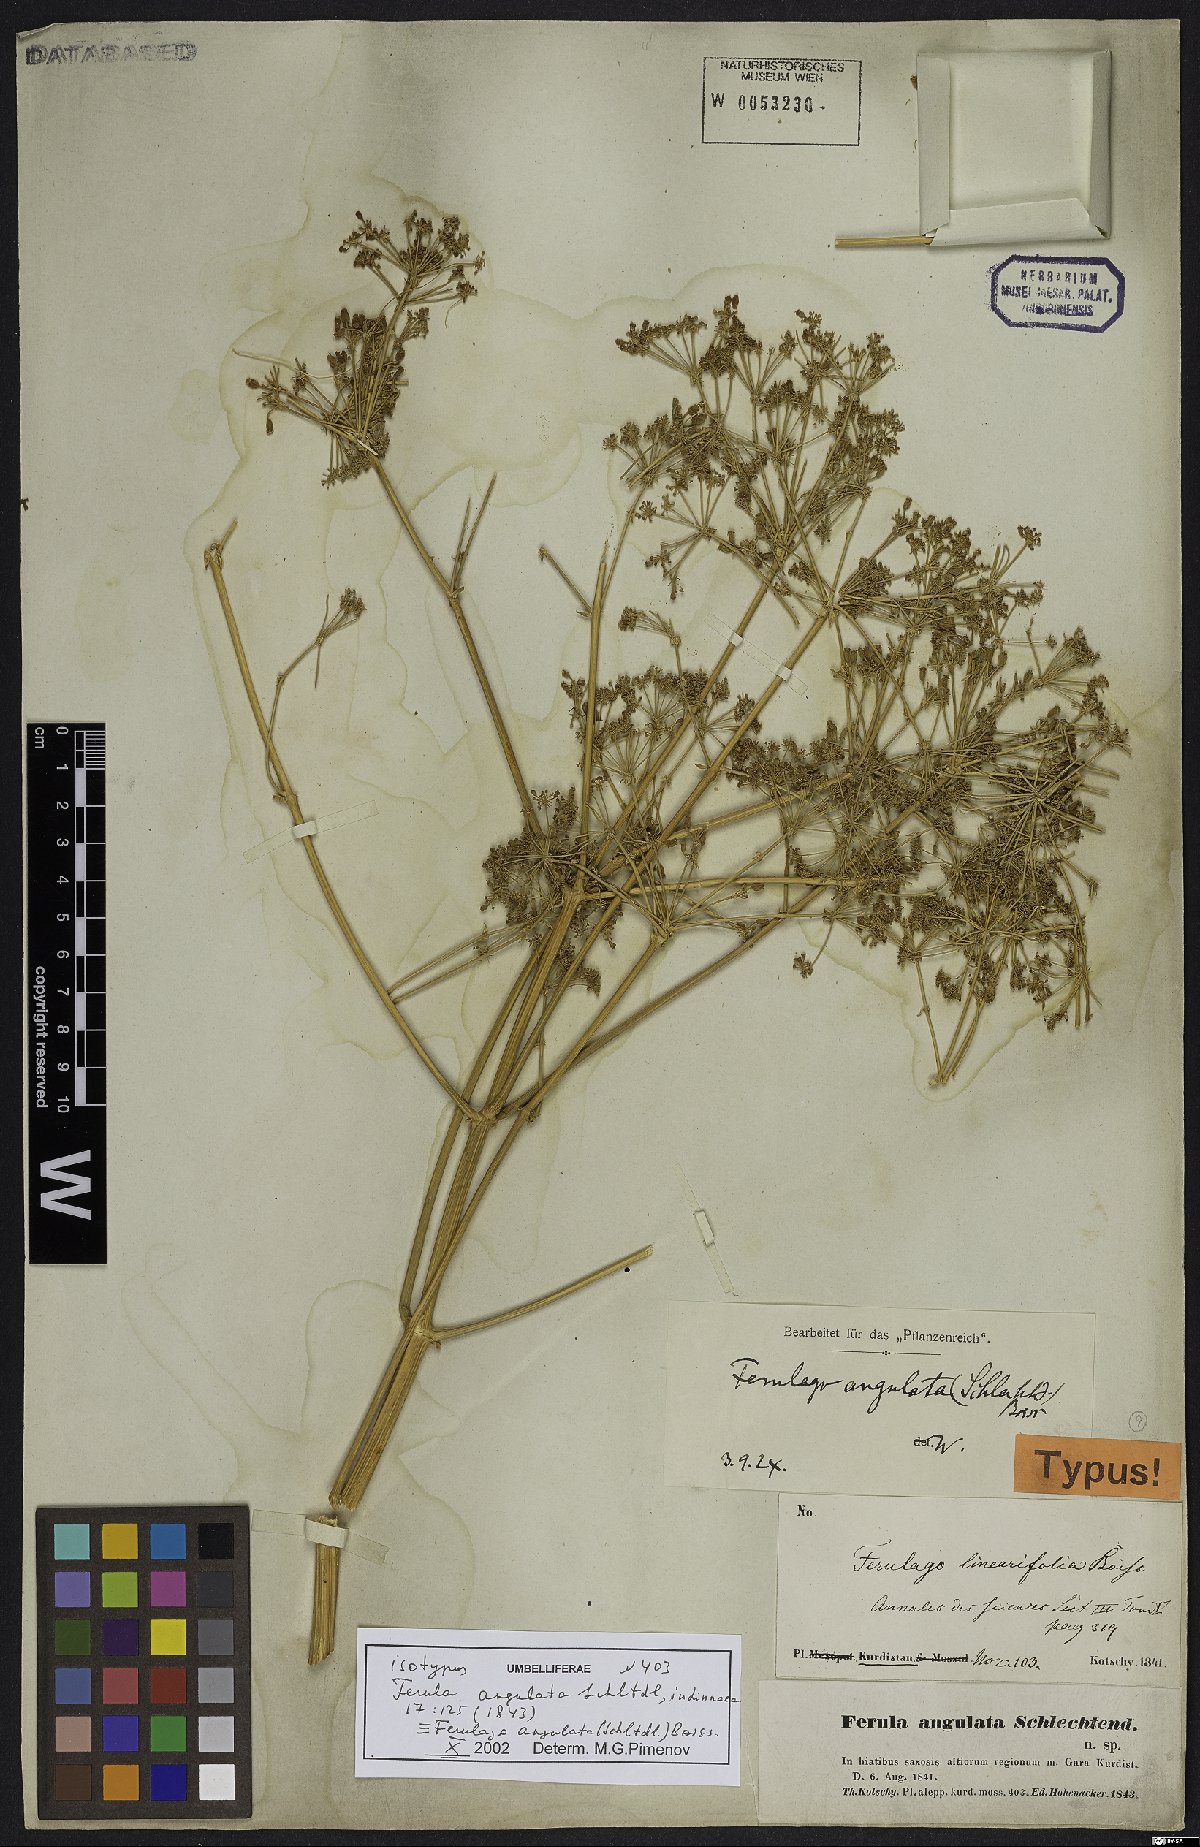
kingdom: Plantae
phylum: Tracheophyta
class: Magnoliopsida
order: Apiales
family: Apiaceae
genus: Ferulago
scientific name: Ferulago angulata
